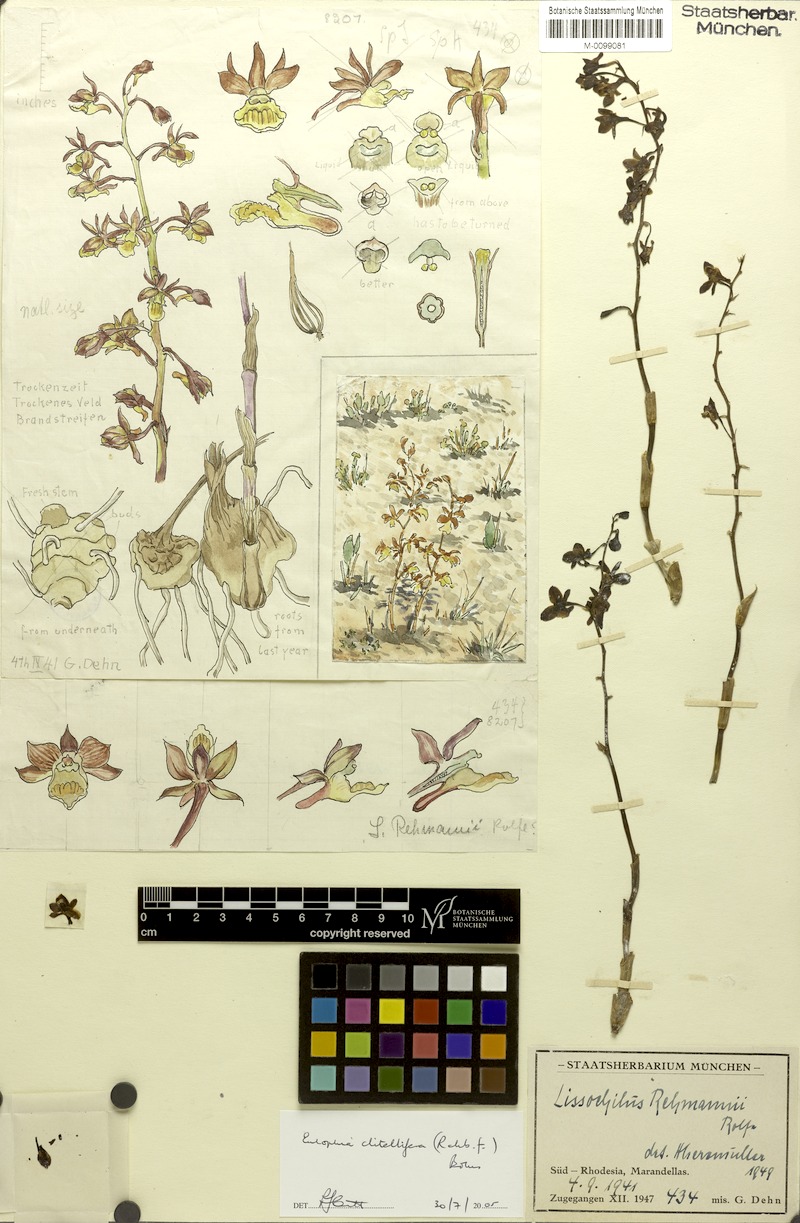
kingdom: Plantae
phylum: Tracheophyta
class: Liliopsida
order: Asparagales
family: Orchidaceae
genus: Eulophia
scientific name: Eulophia clitellifera
